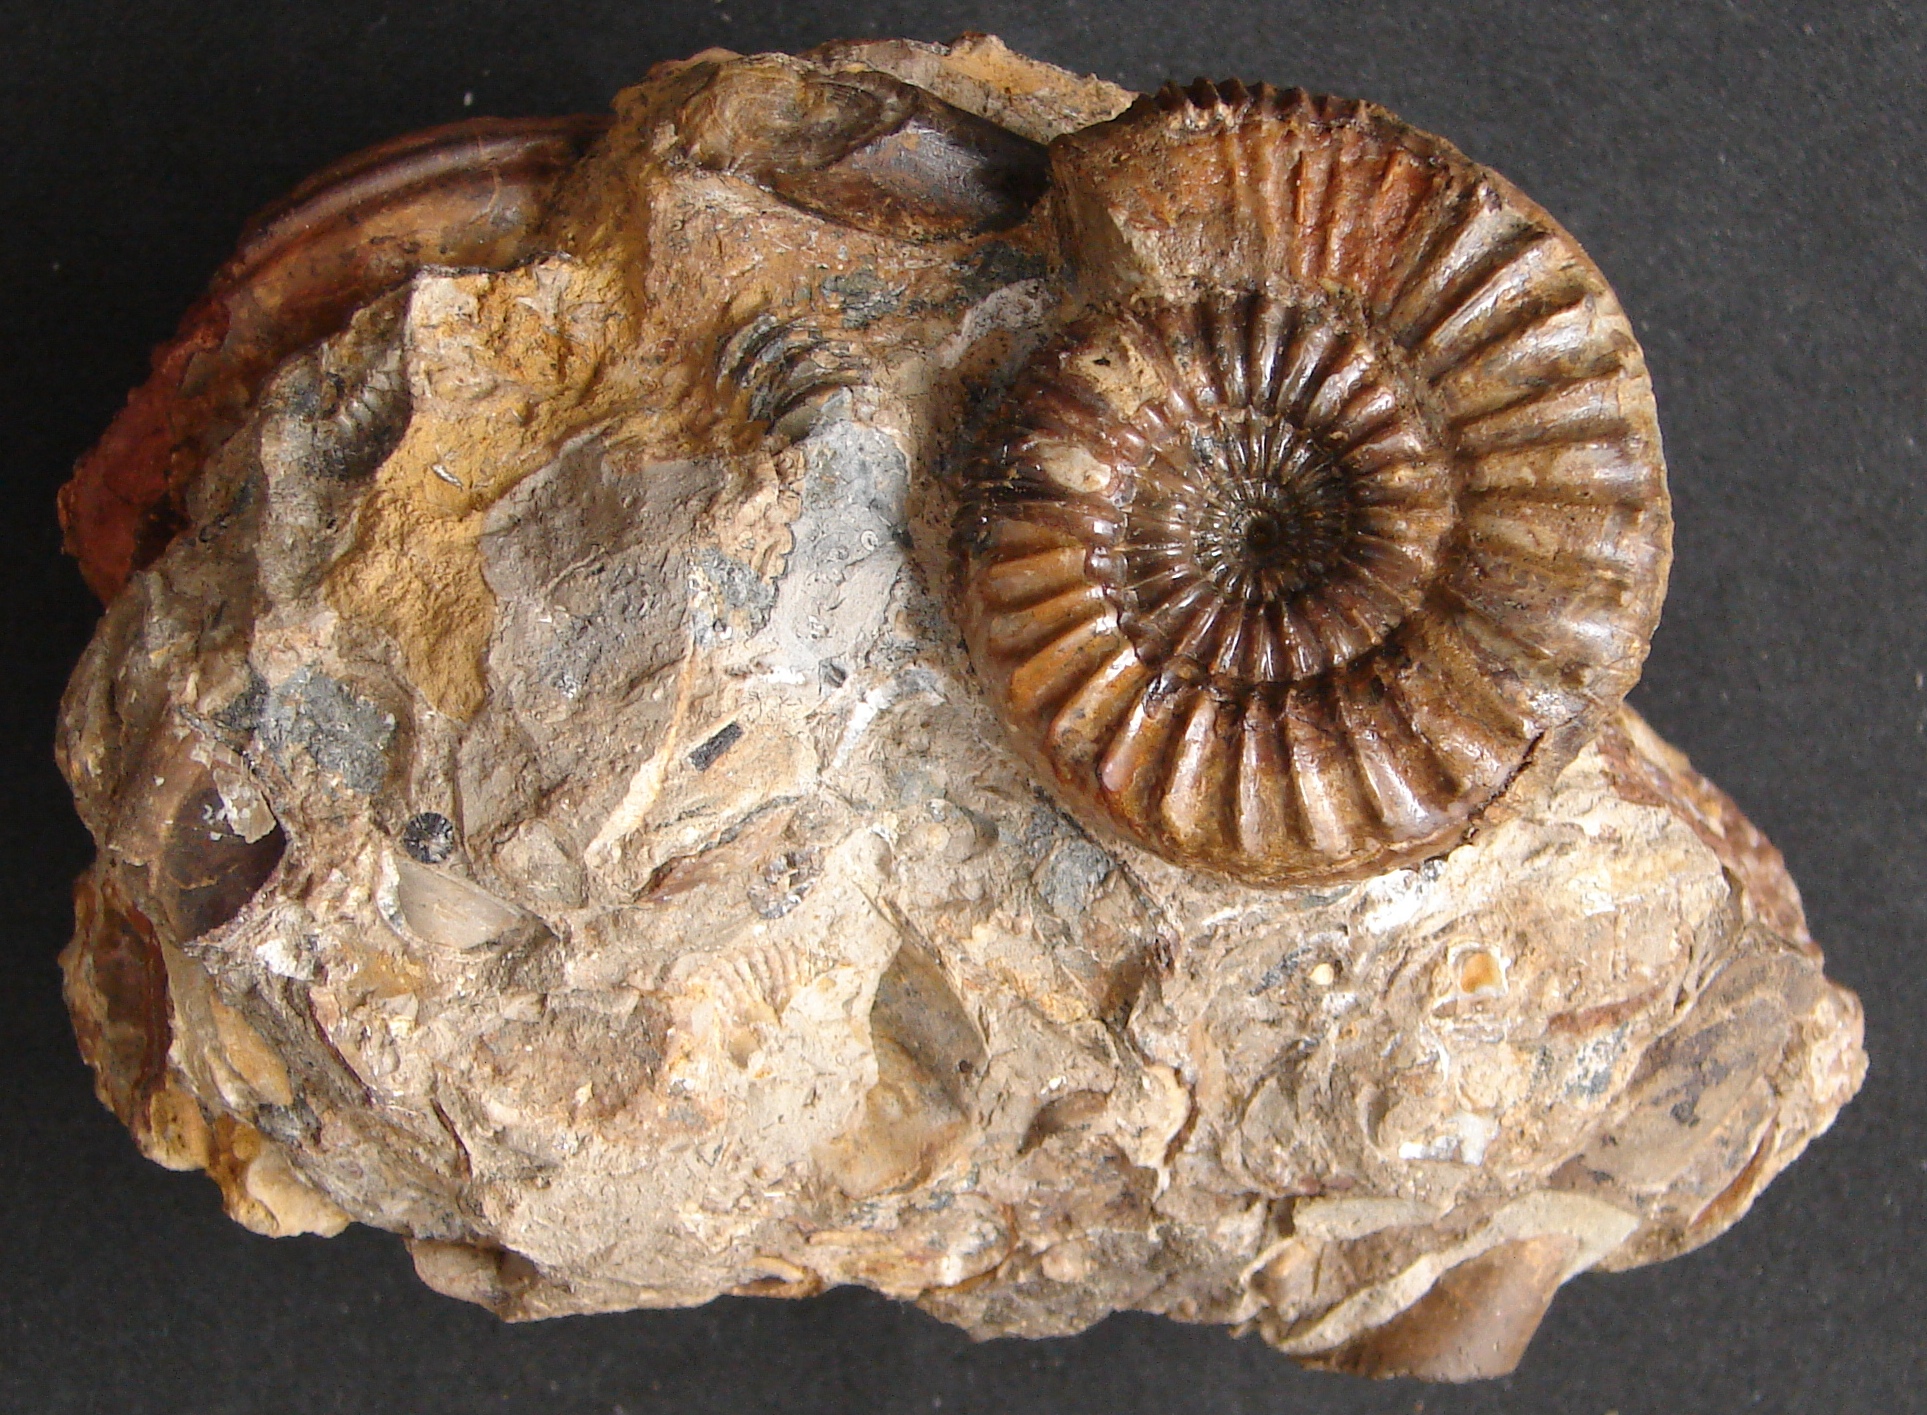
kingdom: Animalia
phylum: Mollusca
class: Cephalopoda
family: Dactylioceratidae
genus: Catacoeloceras
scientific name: Catacoeloceras crassum
